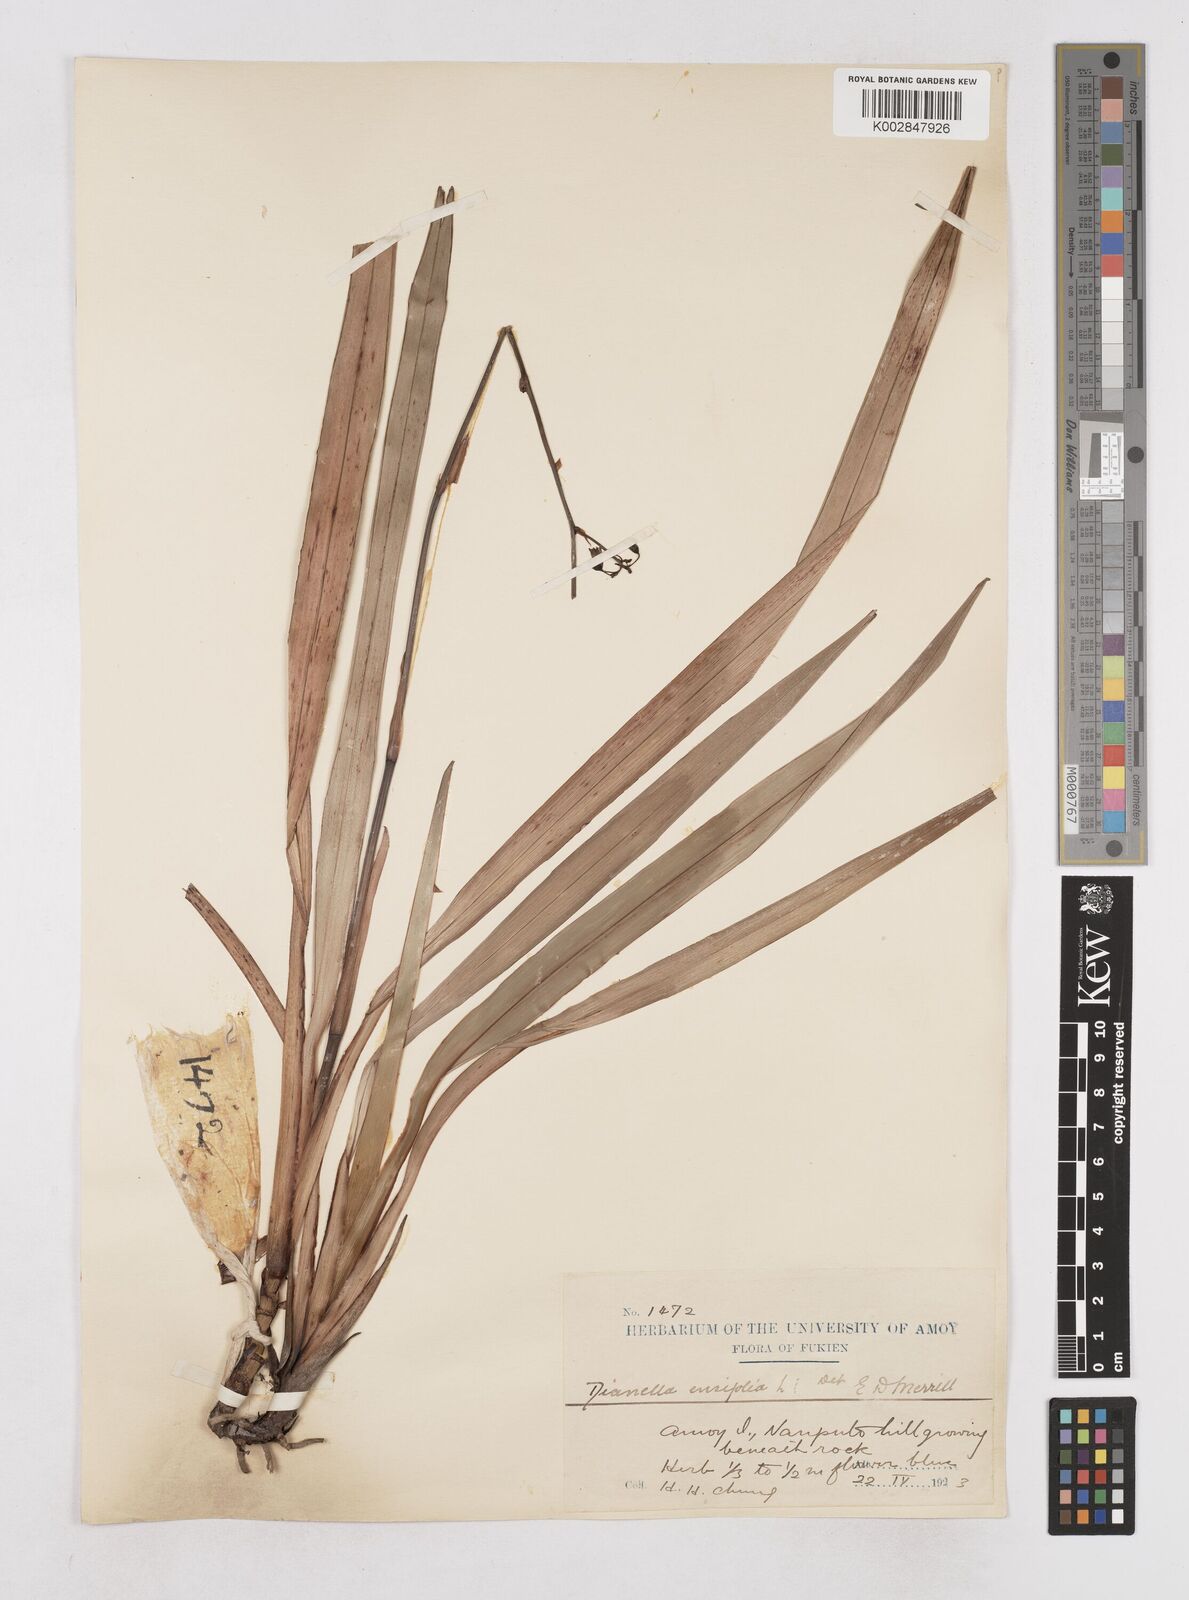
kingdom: Plantae
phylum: Tracheophyta
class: Liliopsida
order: Asparagales
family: Asphodelaceae
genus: Dianella
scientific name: Dianella ensifolia
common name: New zealand lilyplant
